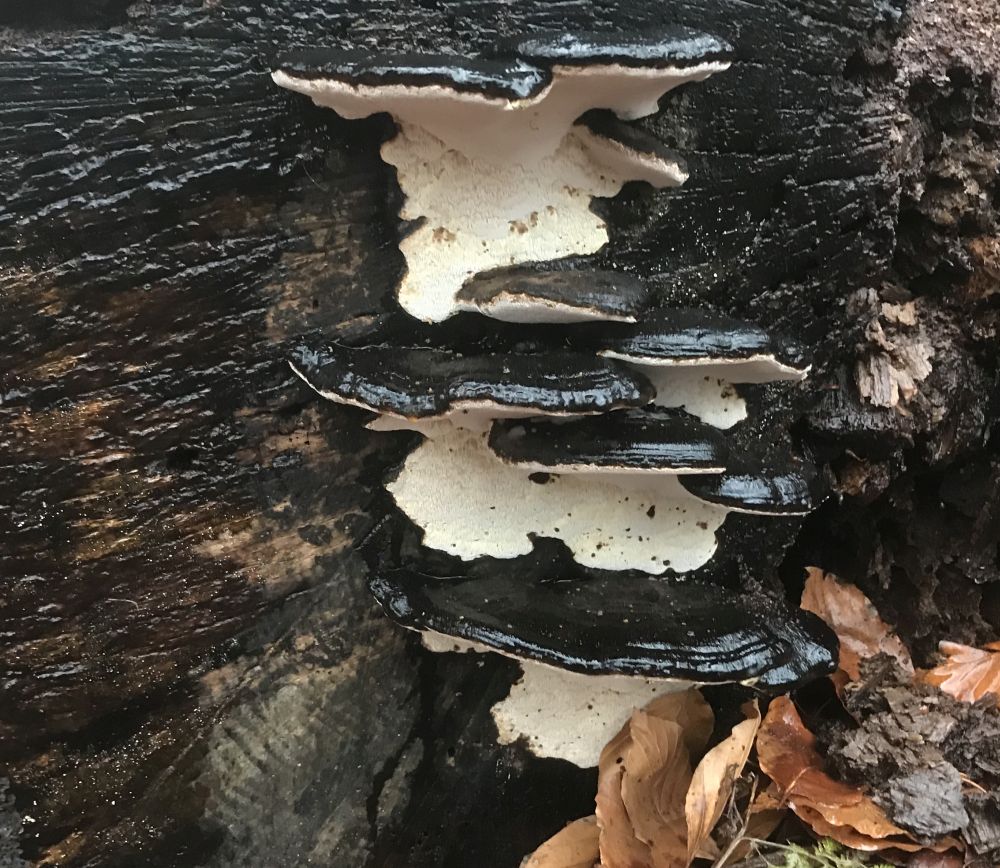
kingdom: Fungi
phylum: Basidiomycota
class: Agaricomycetes
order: Polyporales
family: Ischnodermataceae
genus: Ischnoderma
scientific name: Ischnoderma resinosum
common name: løv-tjæreporesvamp
